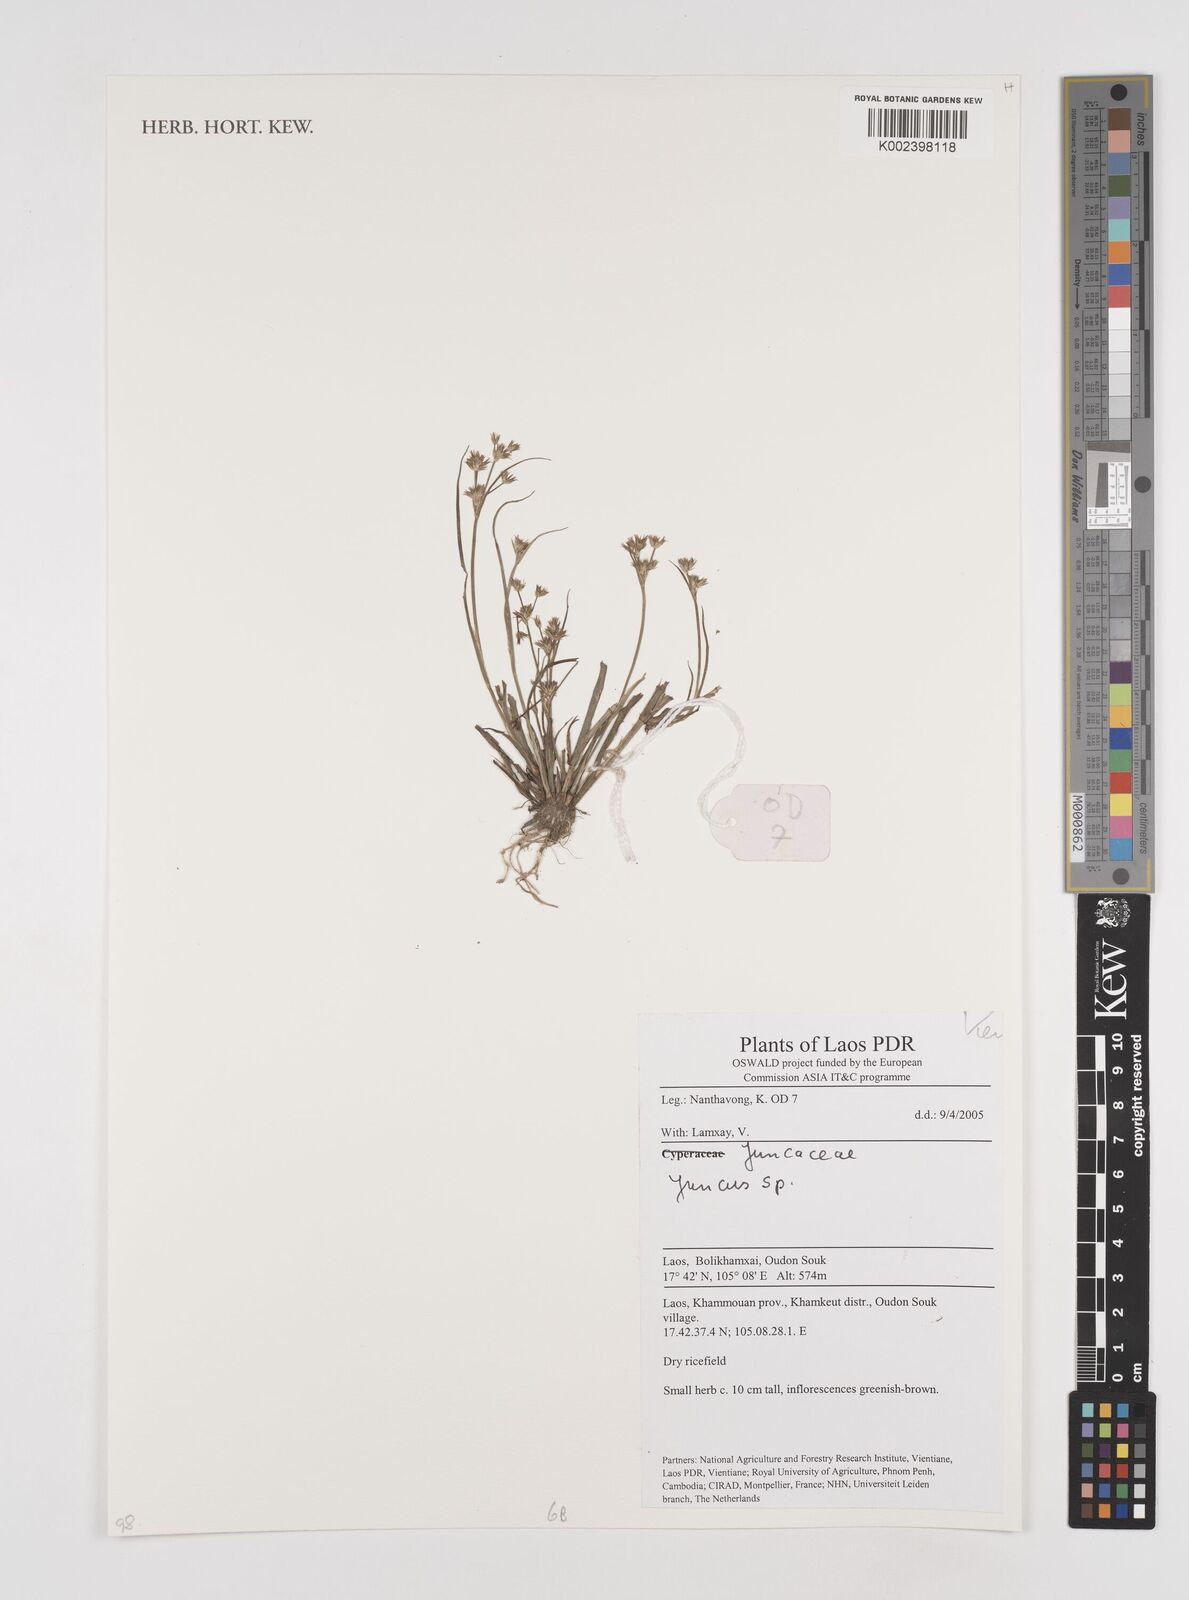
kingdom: Plantae
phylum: Tracheophyta
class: Liliopsida
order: Poales
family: Juncaceae
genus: Juncus
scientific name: Juncus
